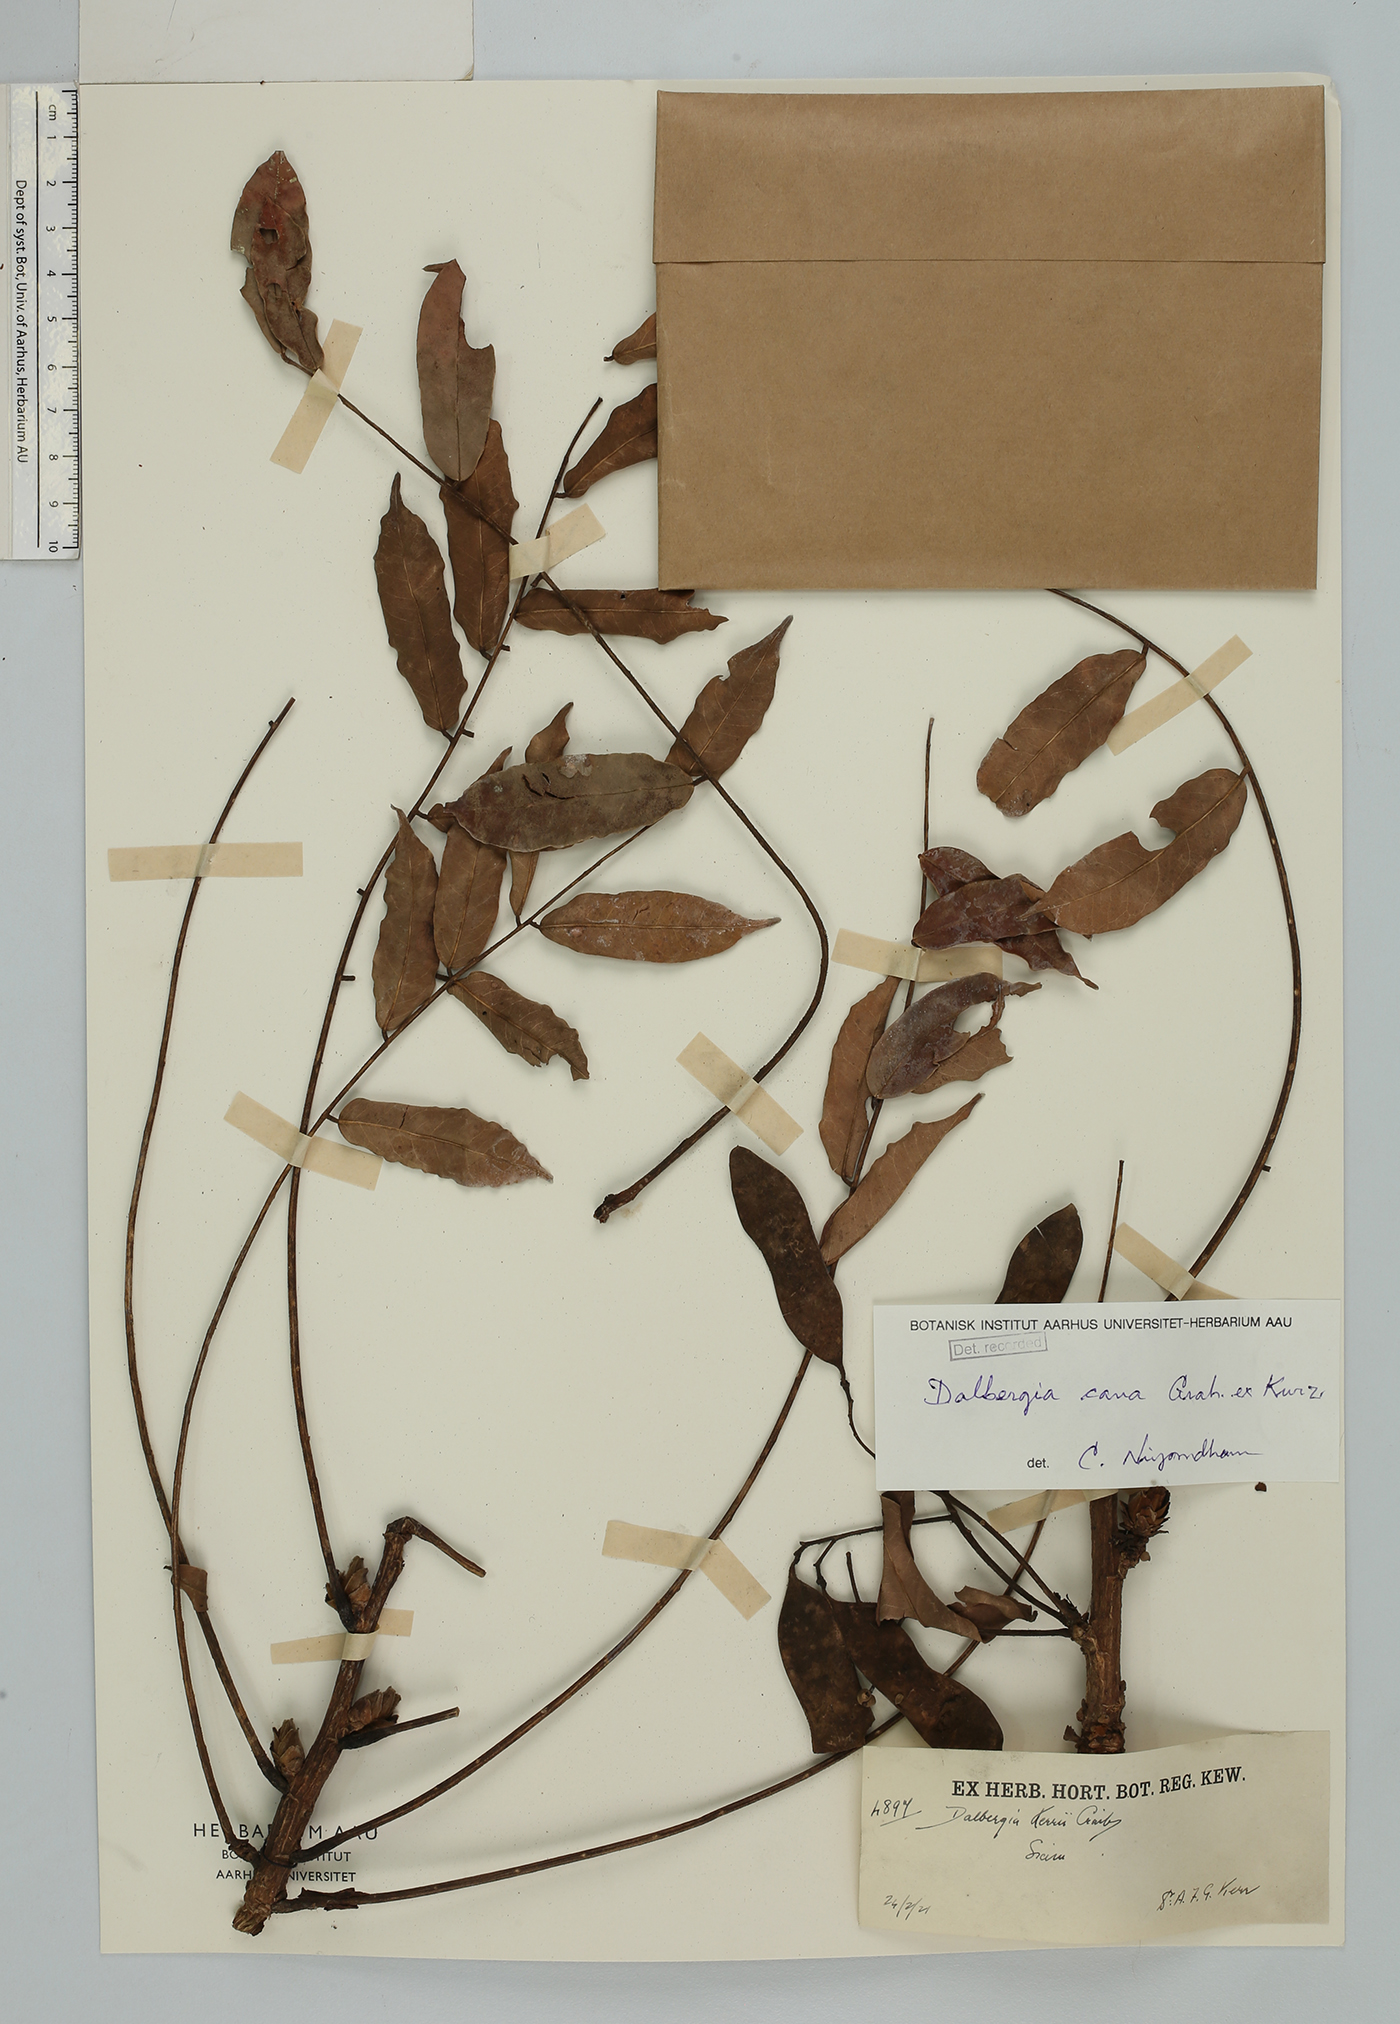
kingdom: Plantae
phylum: Tracheophyta
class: Magnoliopsida
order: Fabales
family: Fabaceae
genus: Dalbergia
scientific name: Dalbergia cana
